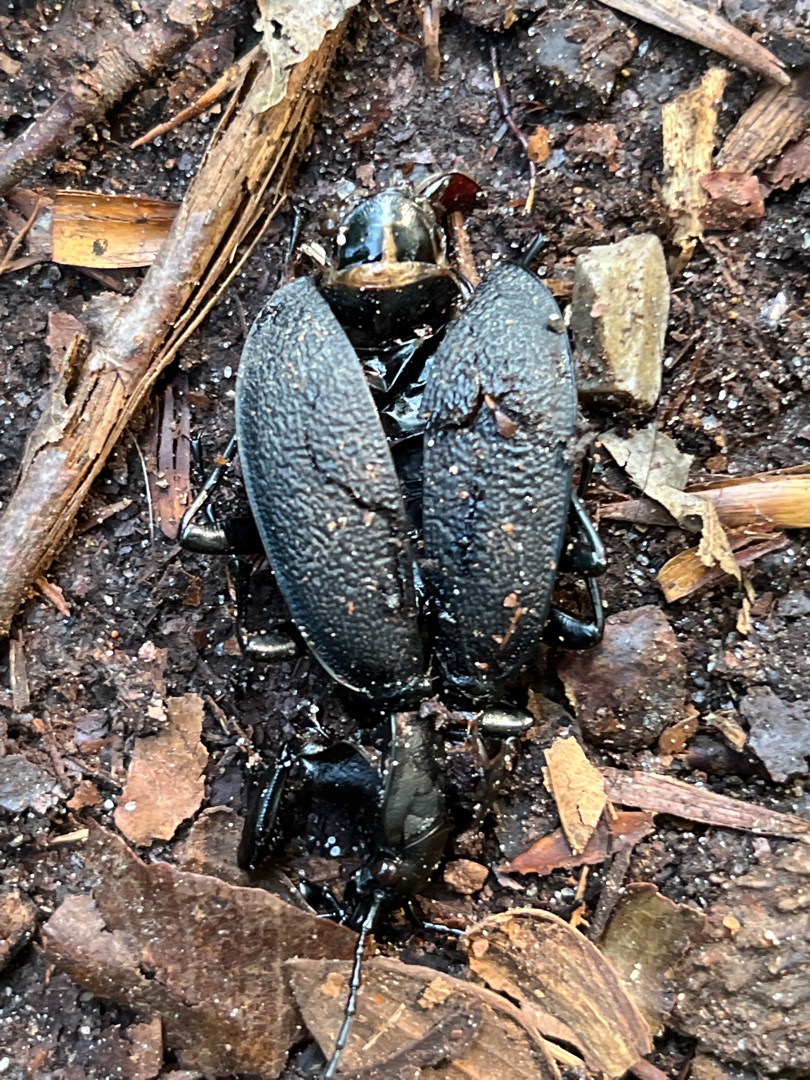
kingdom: Animalia
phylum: Arthropoda
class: Insecta
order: Coleoptera
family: Carabidae
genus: Carabus
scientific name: Carabus coriaceus
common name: Læderløber
